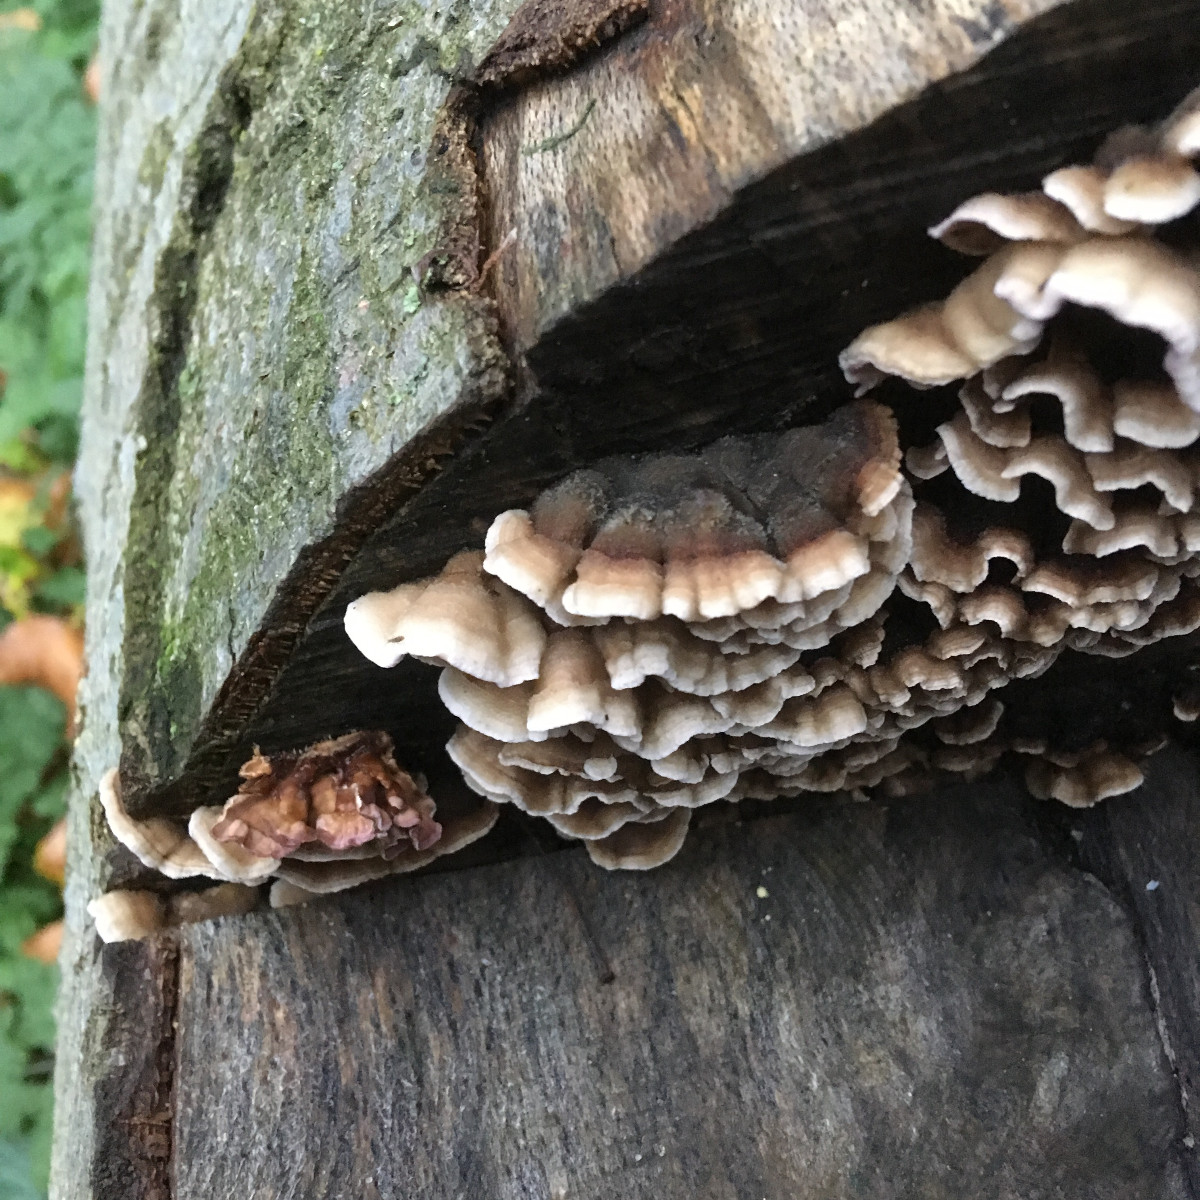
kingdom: Fungi
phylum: Basidiomycota
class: Agaricomycetes
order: Agaricales
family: Cyphellaceae
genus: Chondrostereum
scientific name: Chondrostereum purpureum
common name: purpurlædersvamp
